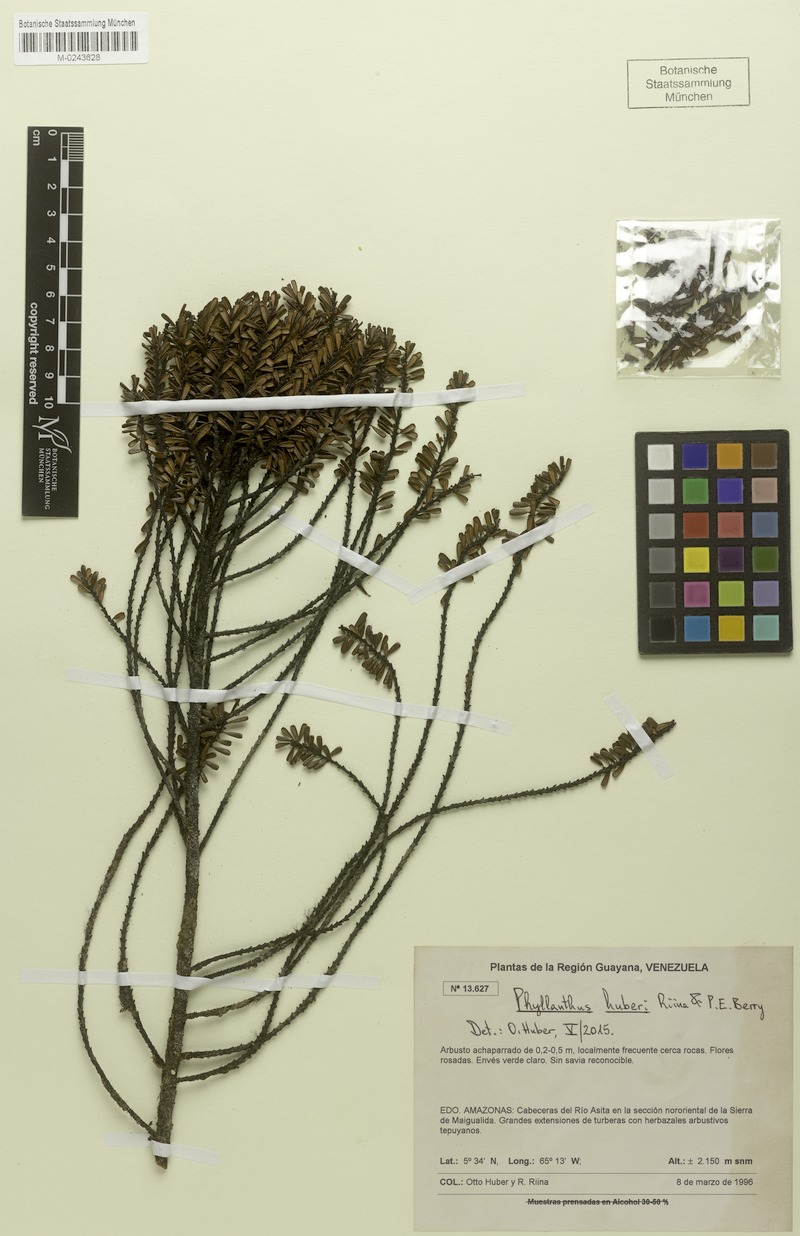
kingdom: Plantae
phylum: Tracheophyta
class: Magnoliopsida
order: Malpighiales
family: Phyllanthaceae
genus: Phyllanthus
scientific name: Phyllanthus huberi
